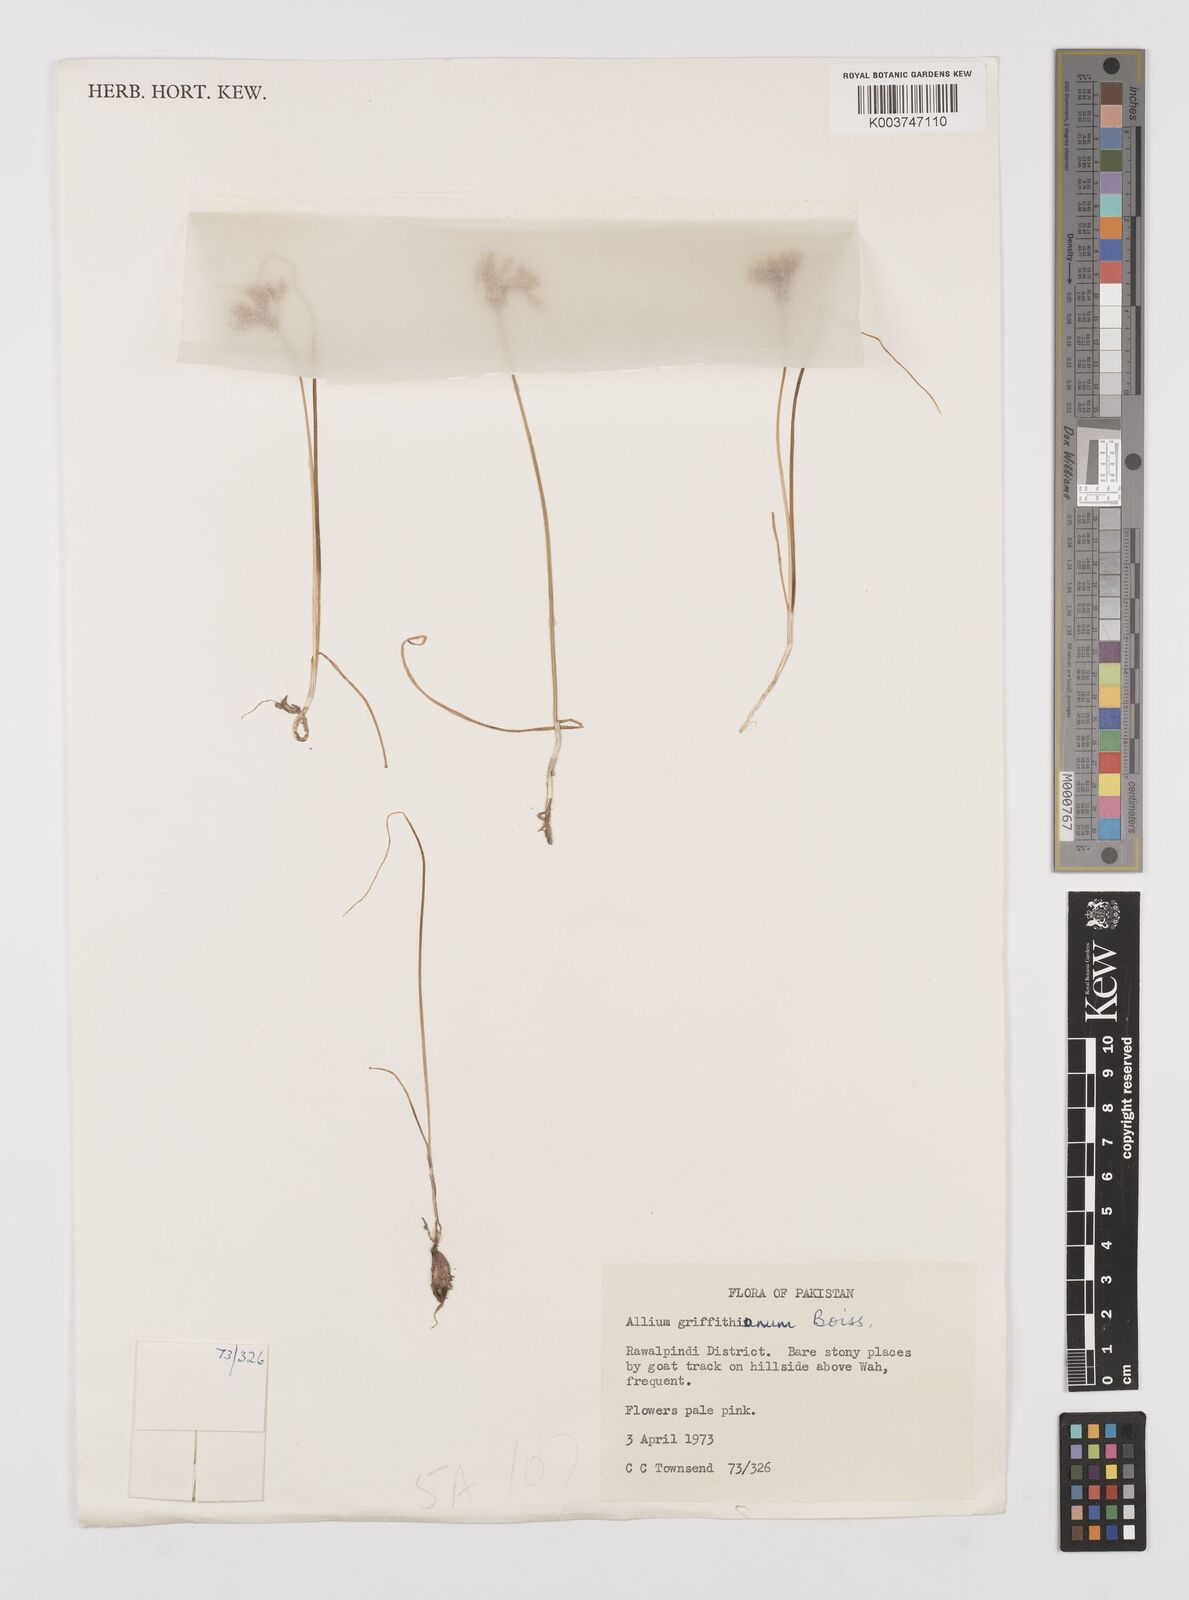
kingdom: Plantae
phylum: Tracheophyta
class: Liliopsida
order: Asparagales
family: Amaryllidaceae
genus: Allium
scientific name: Allium griffithianum
